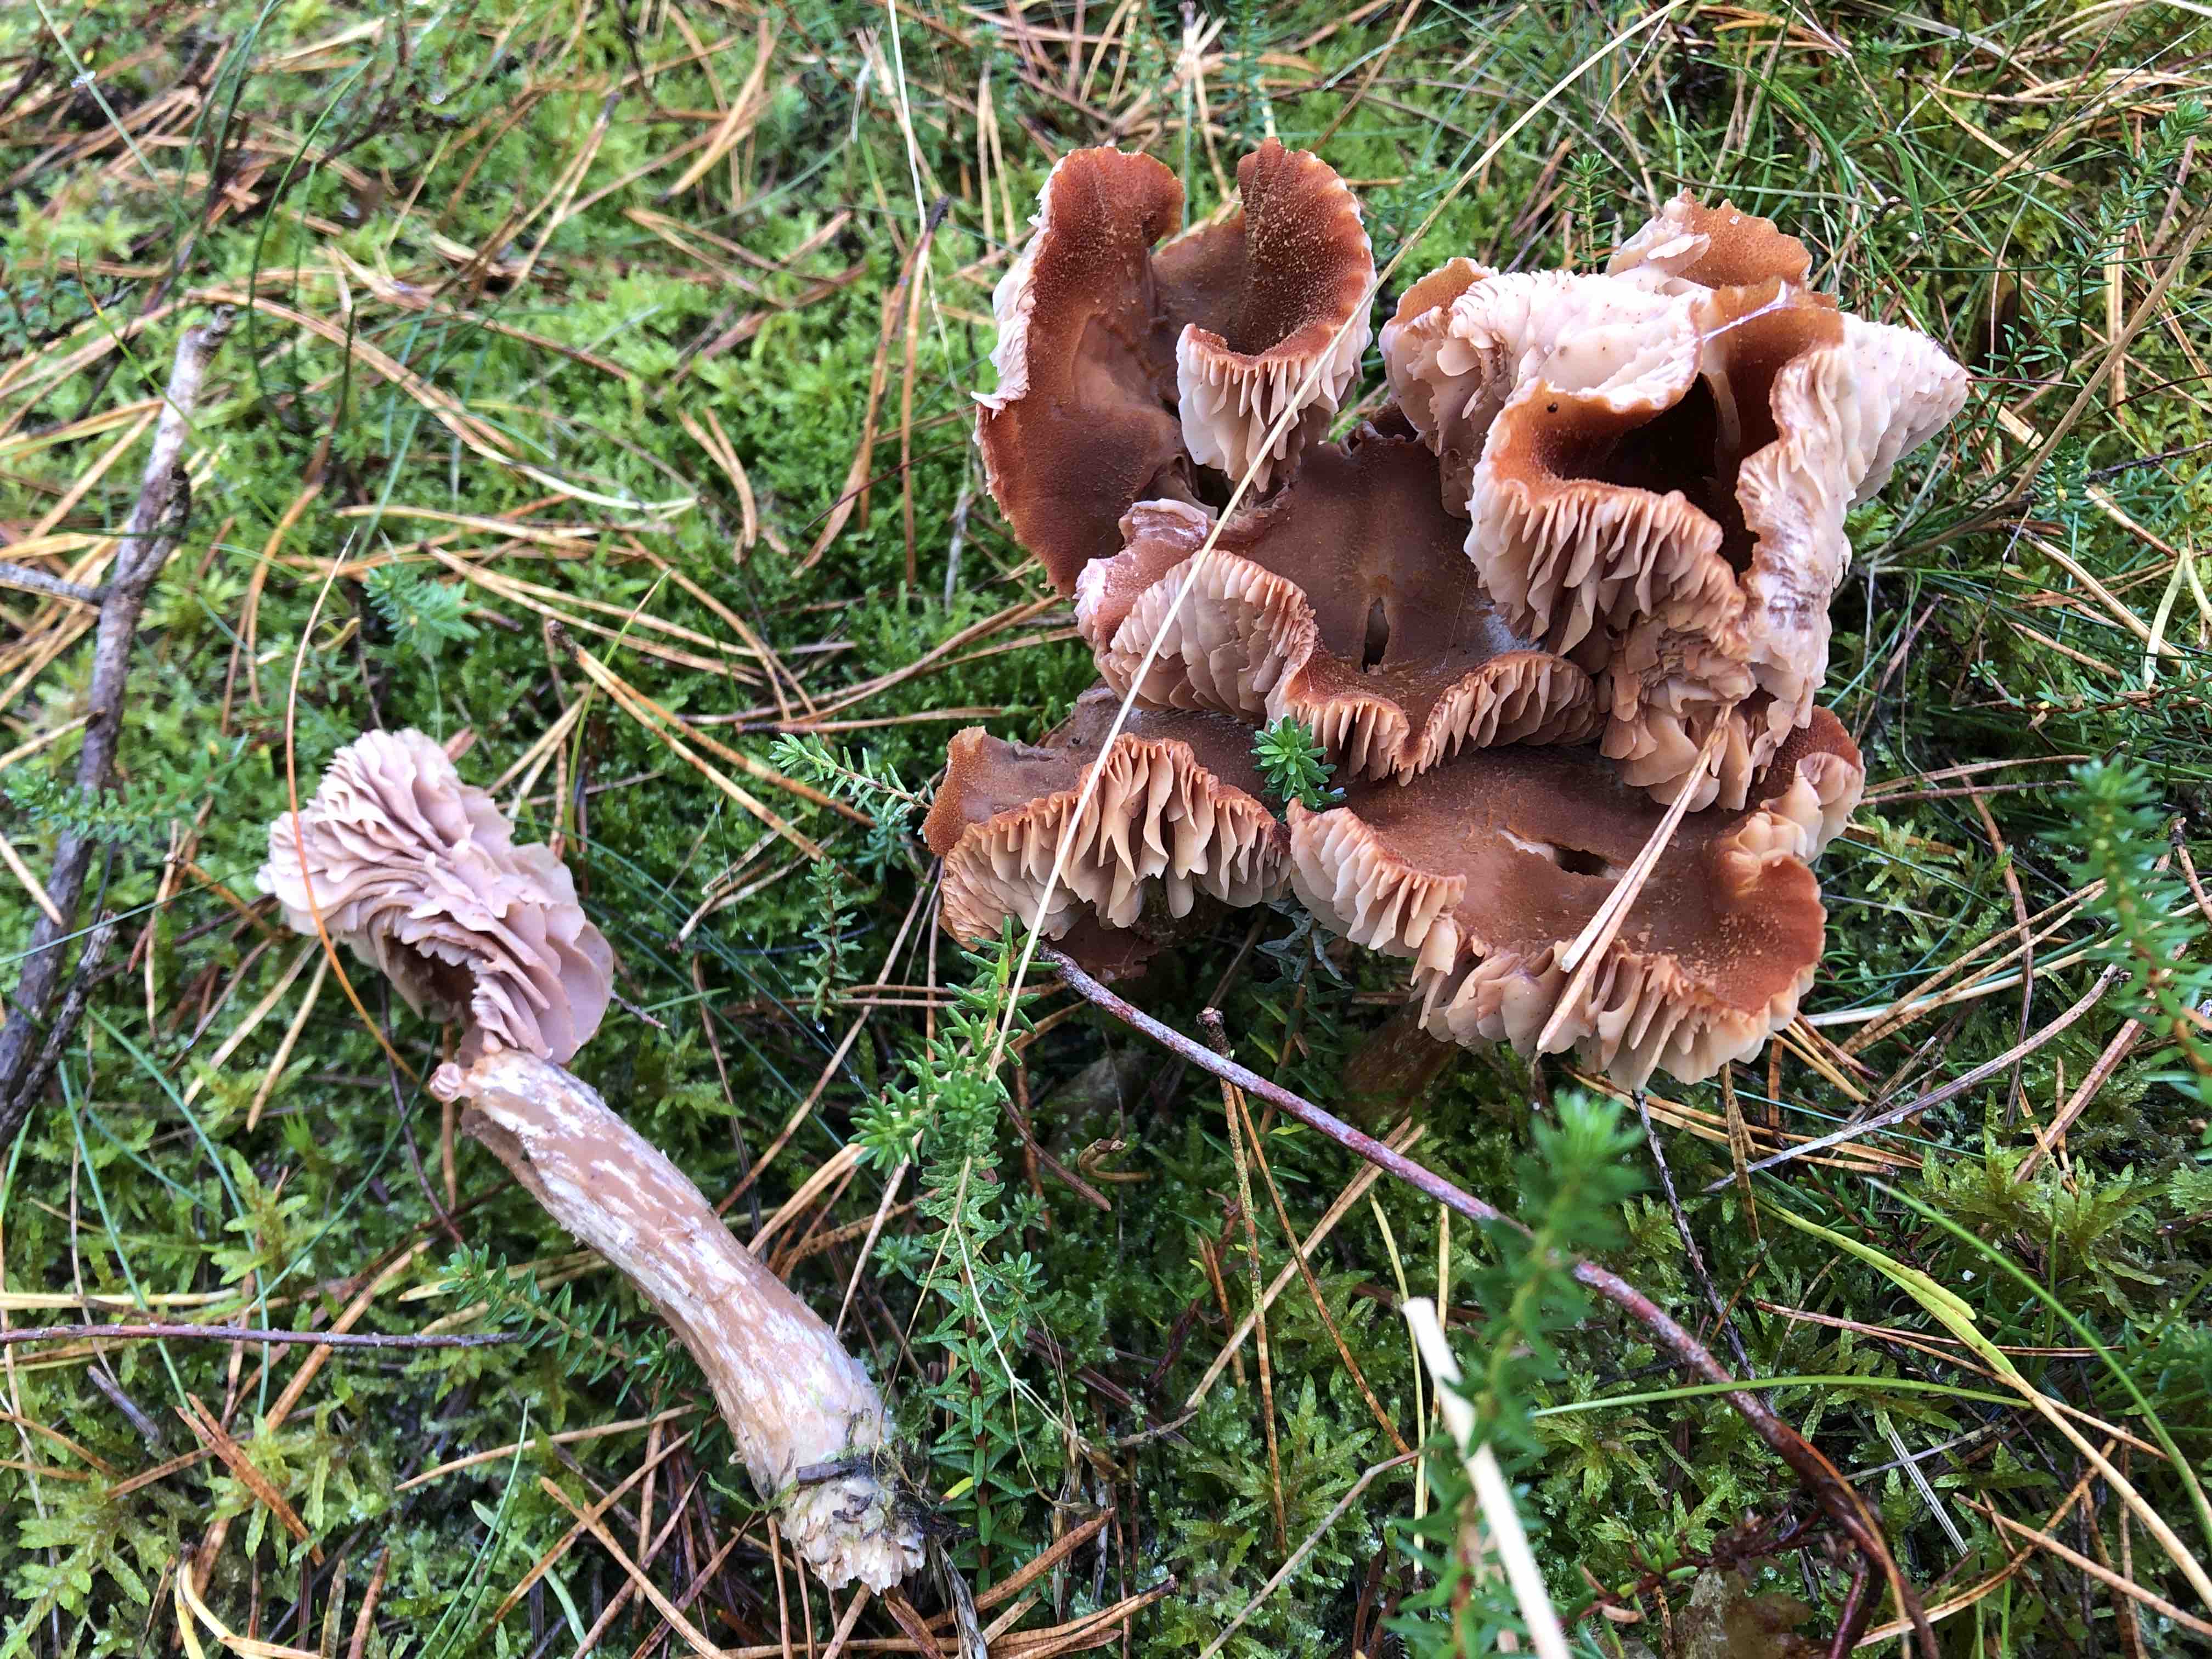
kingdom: Fungi
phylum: Basidiomycota
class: Agaricomycetes
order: Agaricales
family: Hydnangiaceae
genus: Laccaria
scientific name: Laccaria
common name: ametysthat
